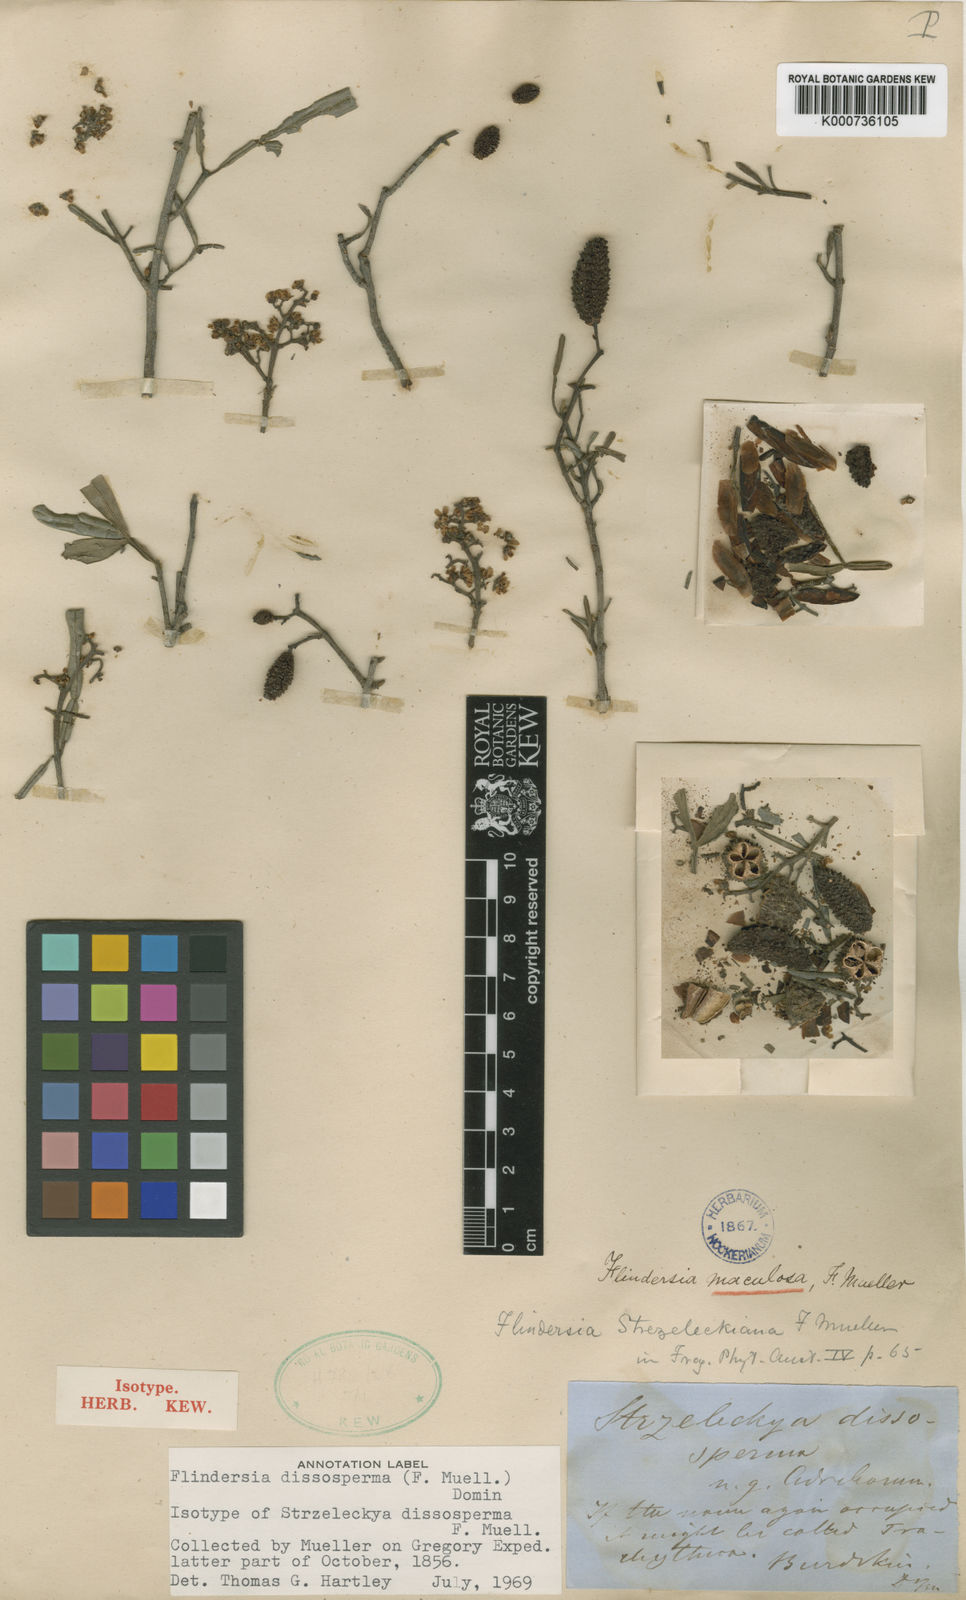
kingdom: Plantae
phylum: Tracheophyta
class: Magnoliopsida
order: Sapindales
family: Rutaceae
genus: Flindersia
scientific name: Flindersia dissosperma
